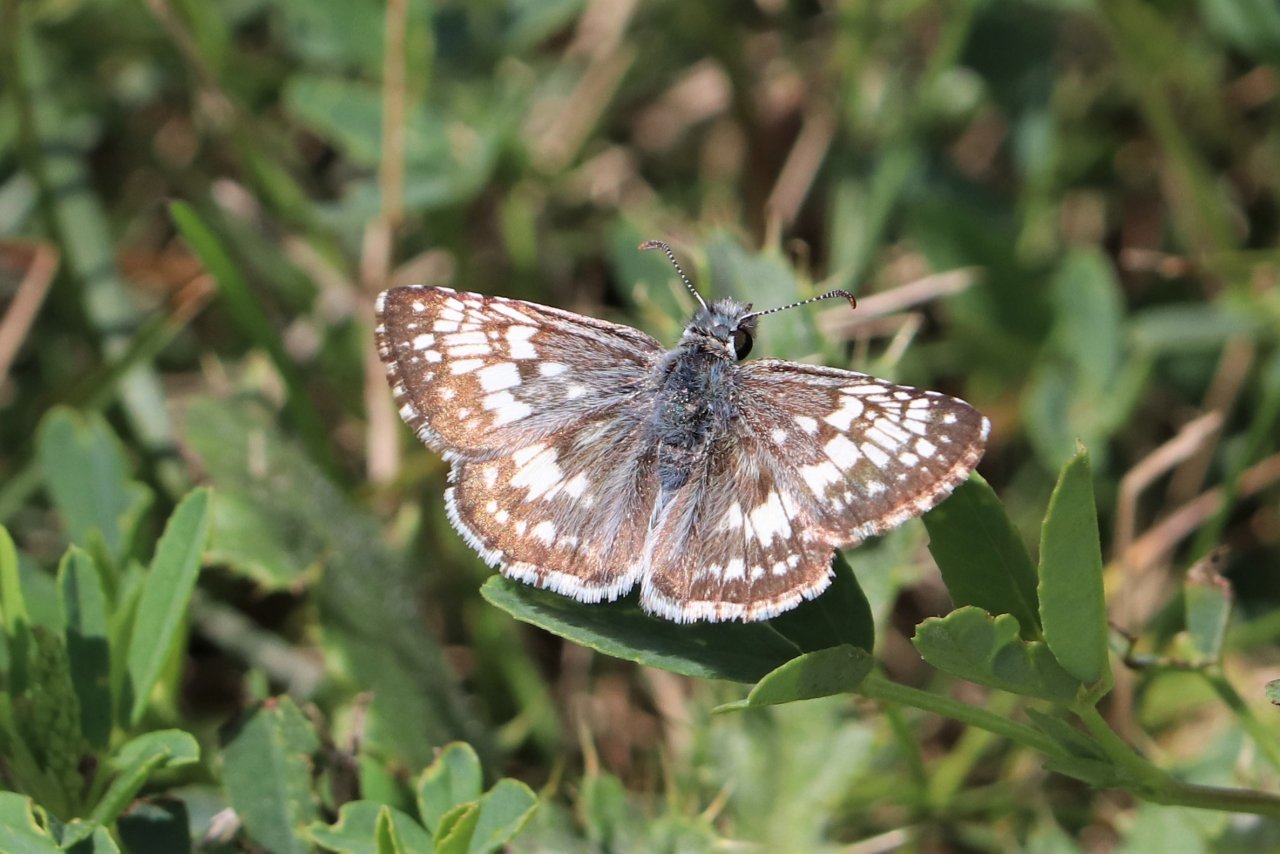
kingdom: Animalia
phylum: Arthropoda
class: Insecta
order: Lepidoptera
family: Hesperiidae
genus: Pyrgus
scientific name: Pyrgus communis
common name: Common Checkered-Skipper
